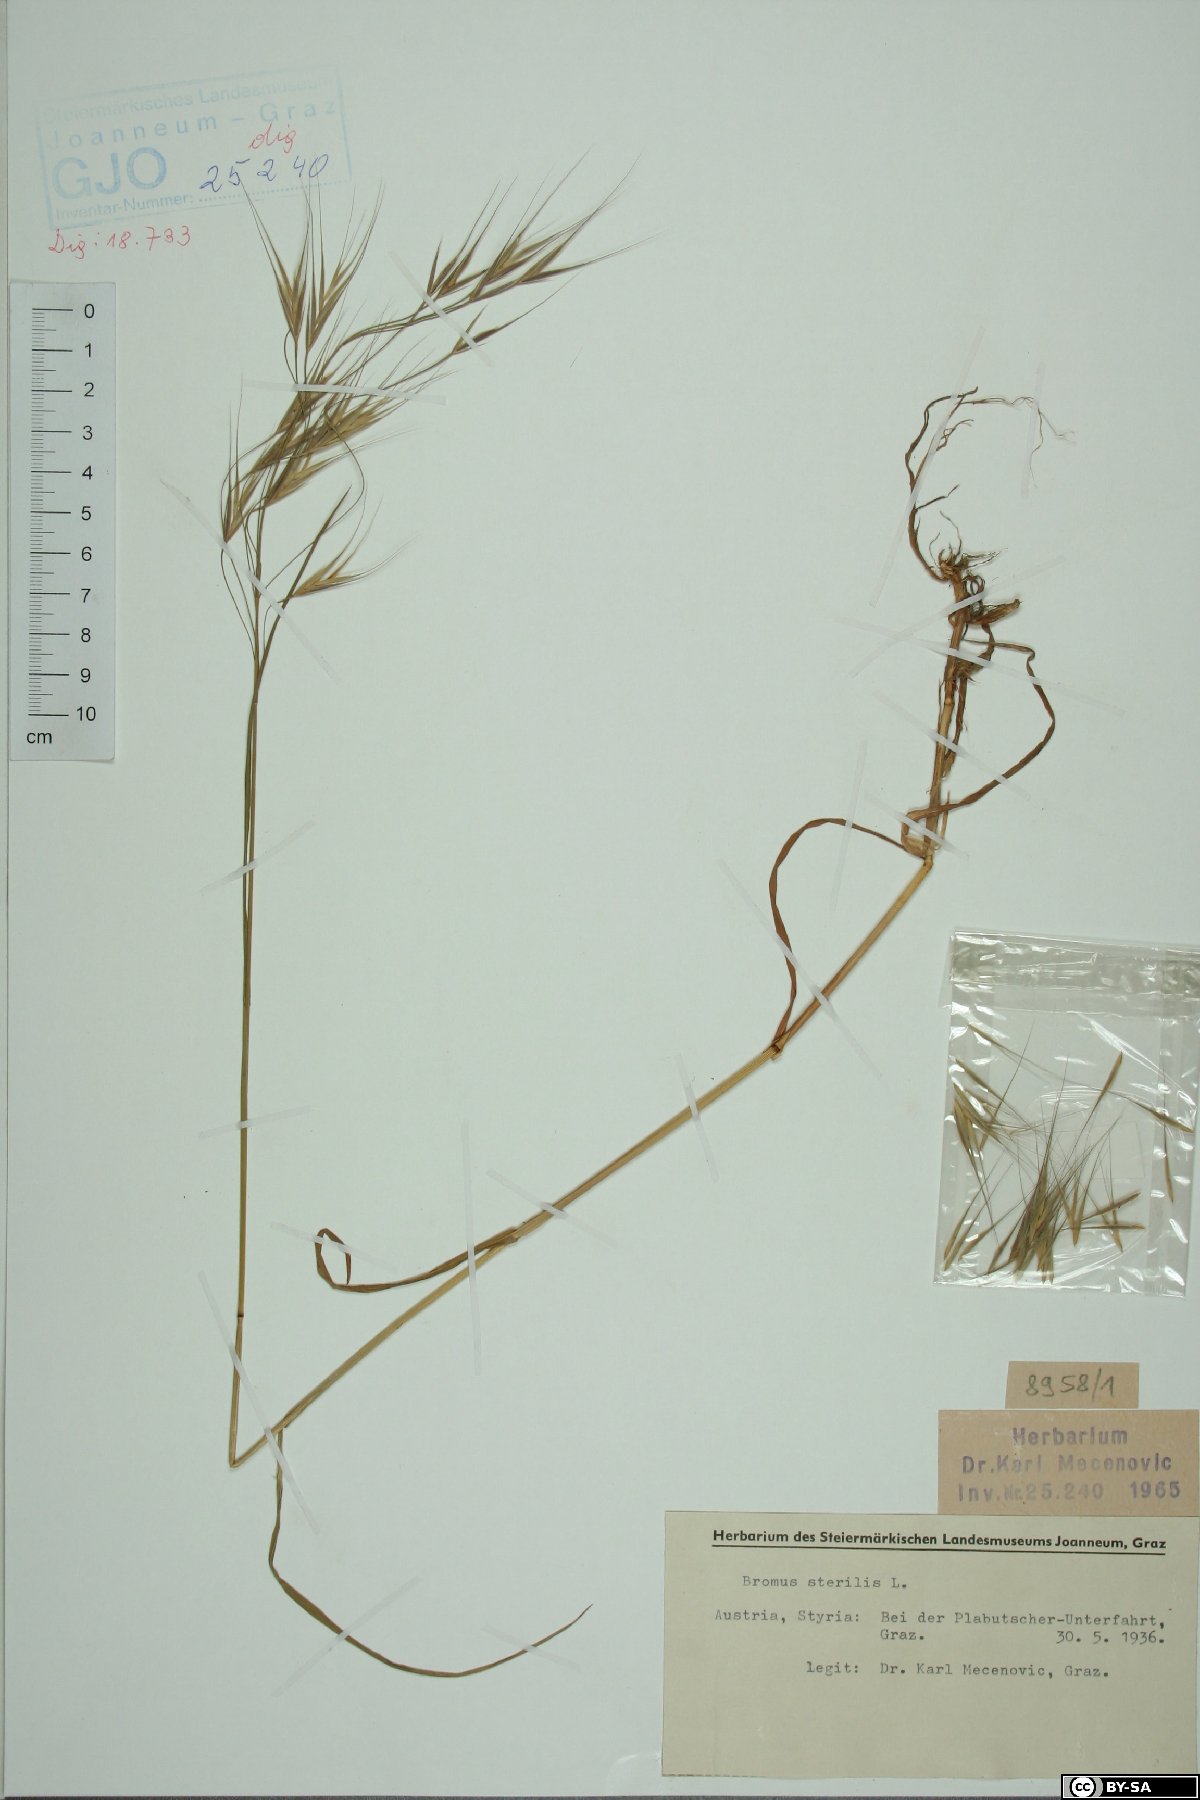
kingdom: Plantae
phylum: Tracheophyta
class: Liliopsida
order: Poales
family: Poaceae
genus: Bromus
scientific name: Bromus sterilis
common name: Poverty brome
